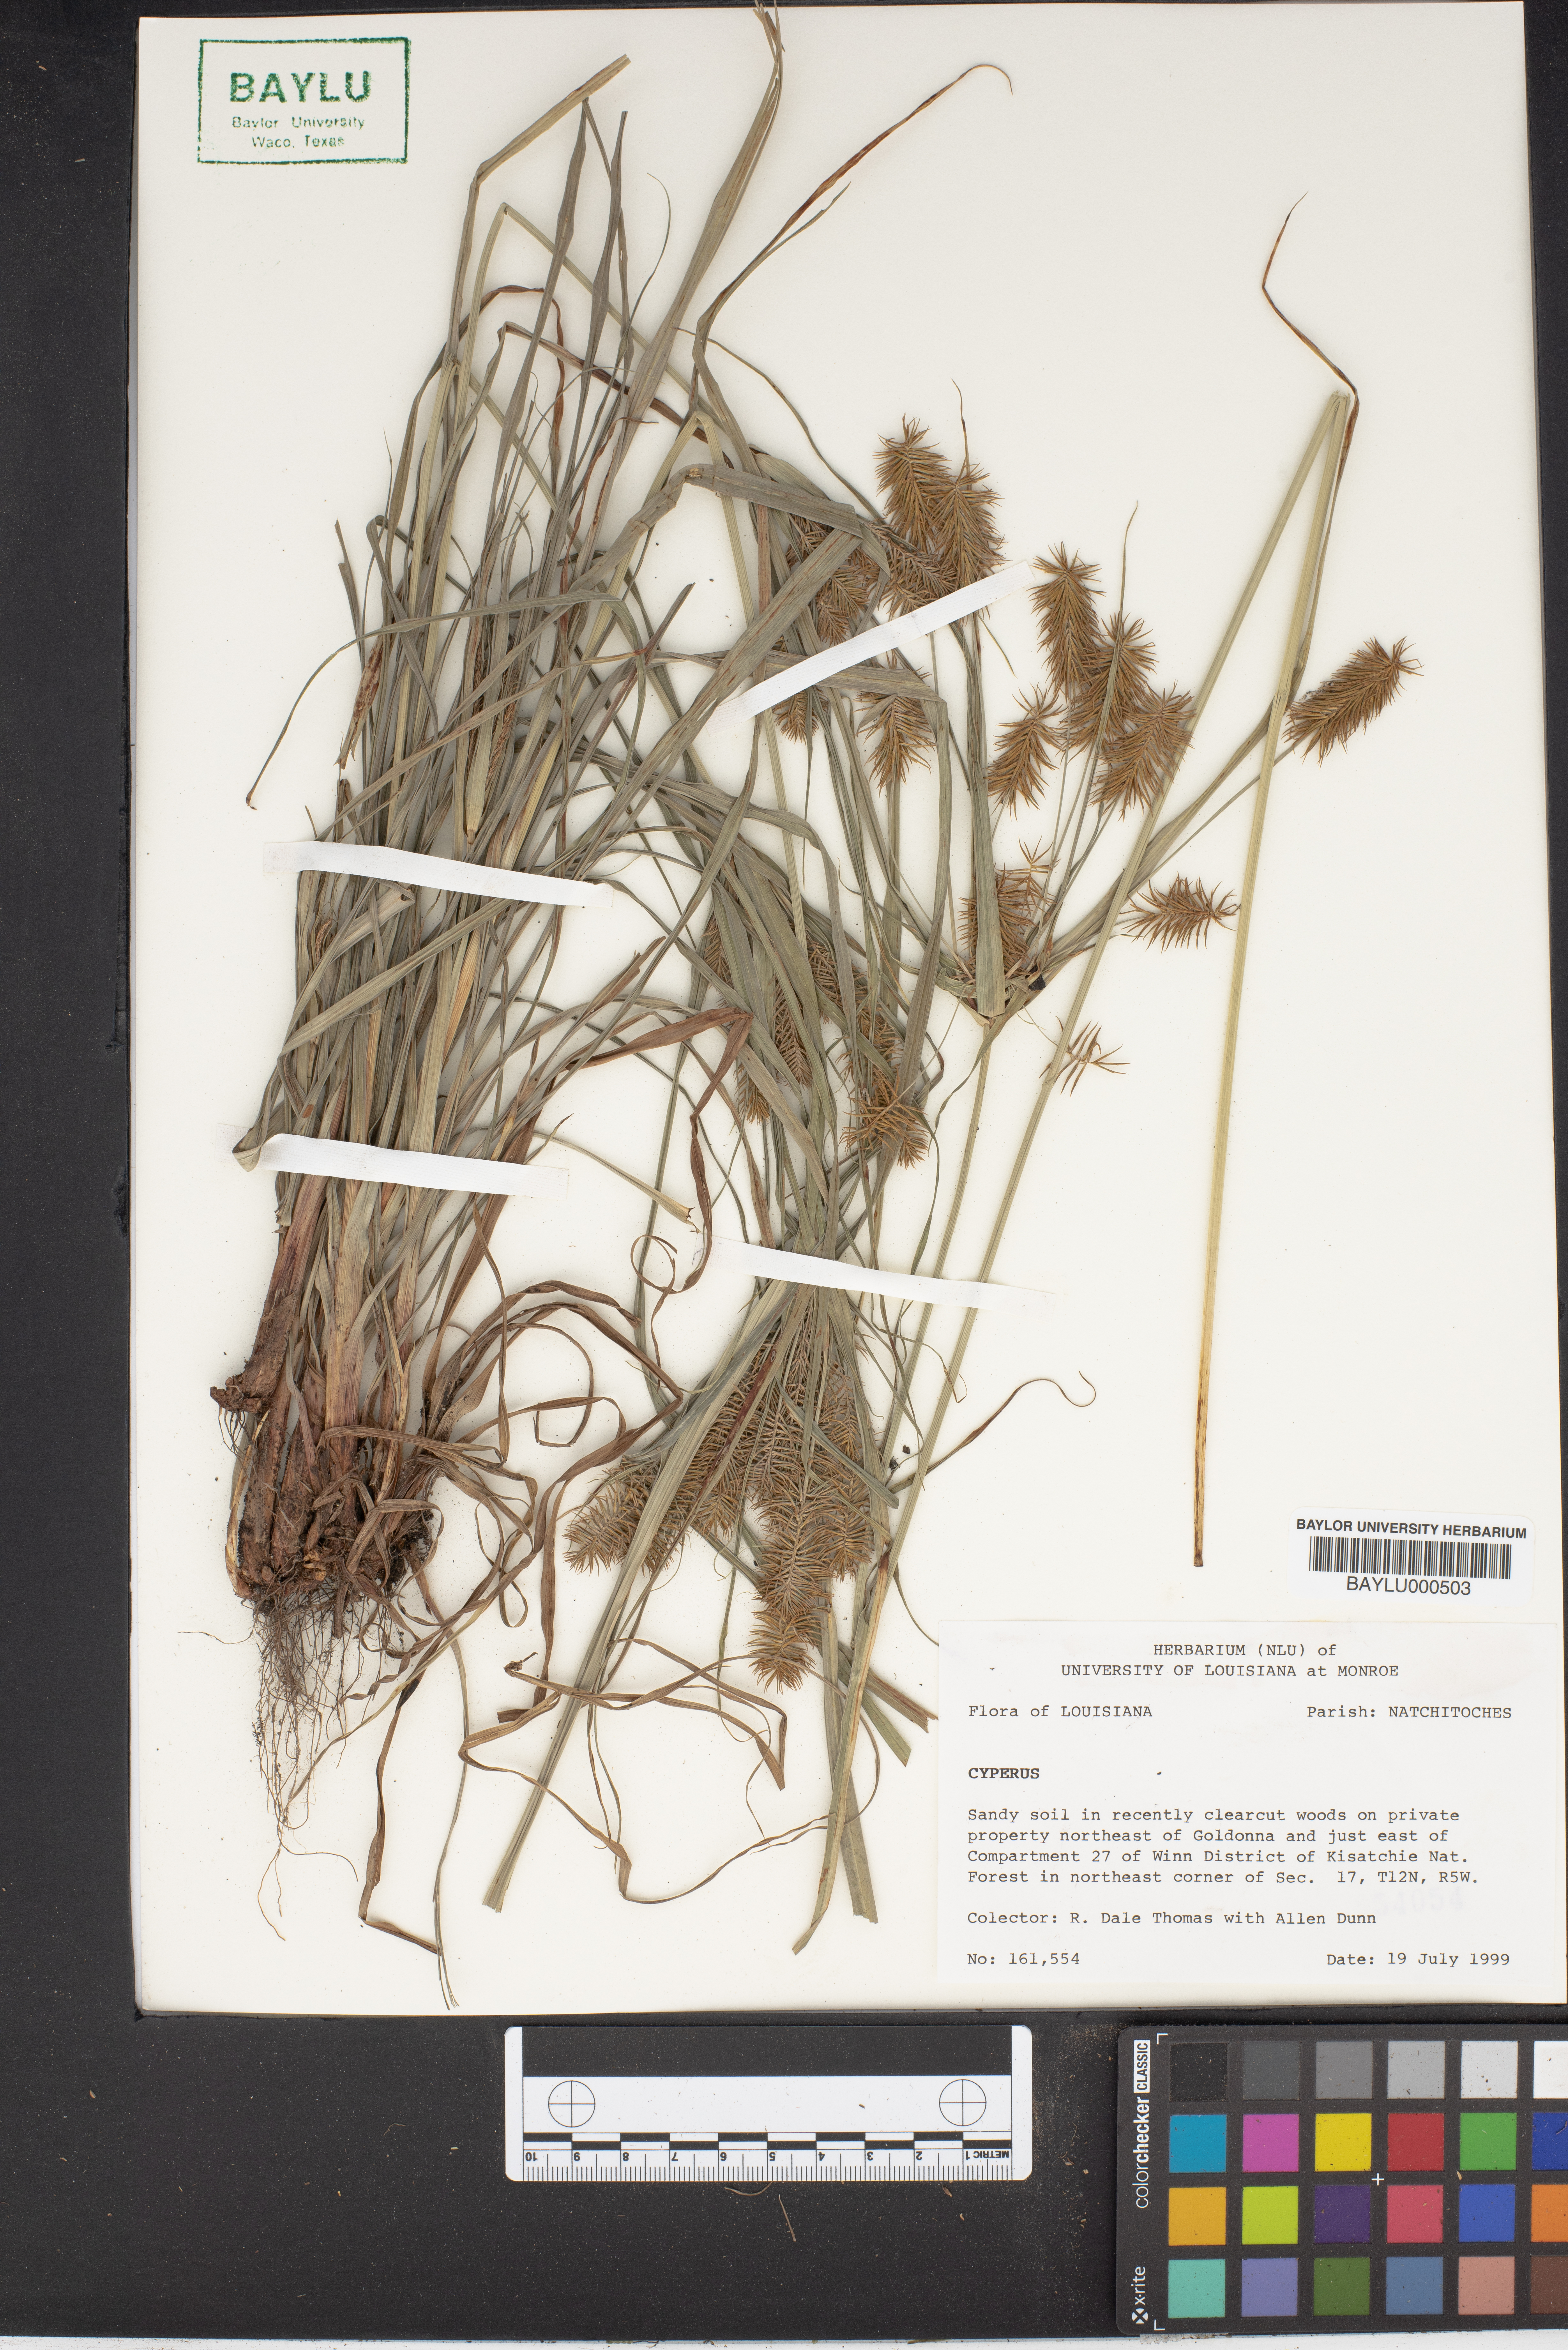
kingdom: Plantae
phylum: Tracheophyta
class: Liliopsida
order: Poales
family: Cyperaceae
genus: Cyperus
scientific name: Cyperus
